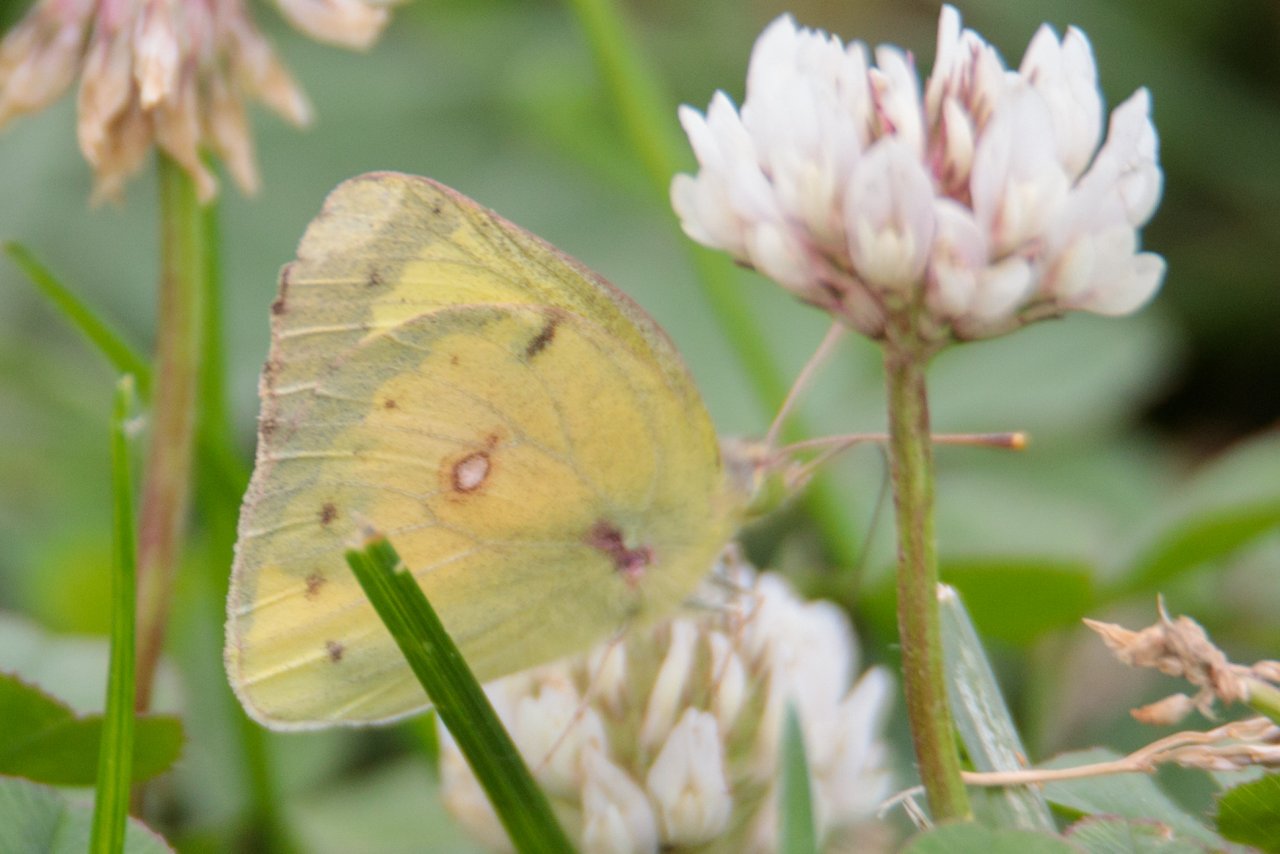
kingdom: Animalia
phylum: Arthropoda
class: Insecta
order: Lepidoptera
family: Pieridae
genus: Colias
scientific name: Colias eurytheme
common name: Orange Sulphur
